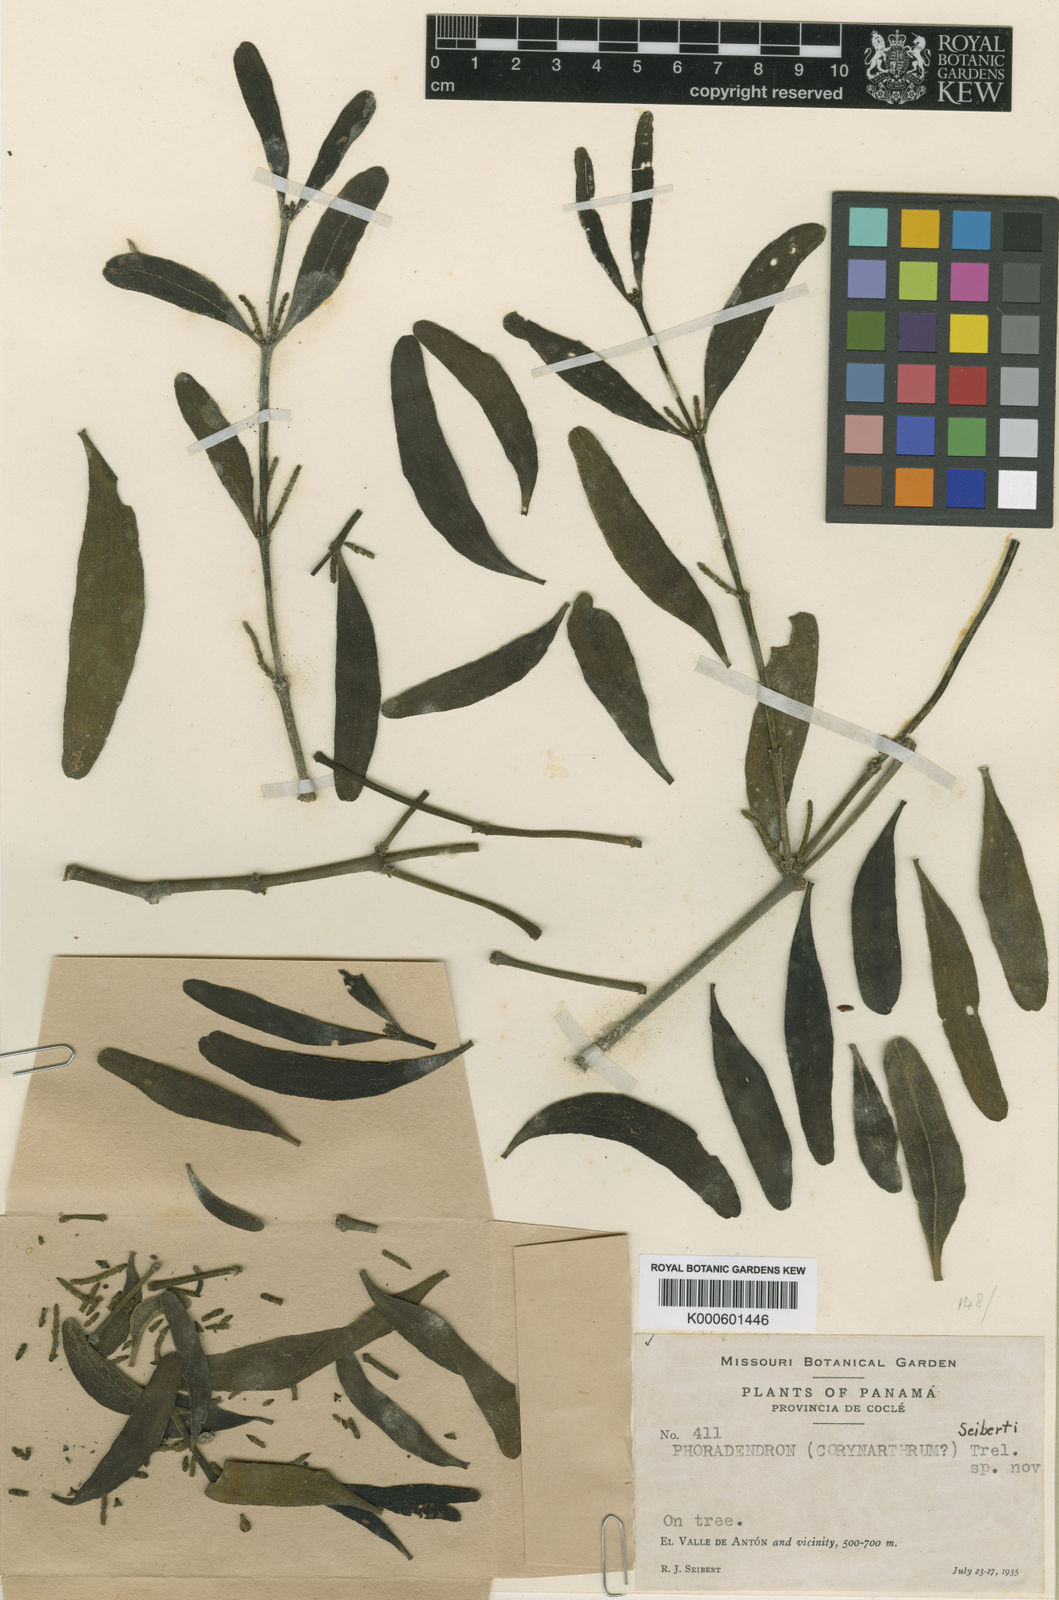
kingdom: Plantae
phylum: Tracheophyta
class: Magnoliopsida
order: Santalales
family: Viscaceae
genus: Phoradendron
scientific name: Phoradendron seibertii
